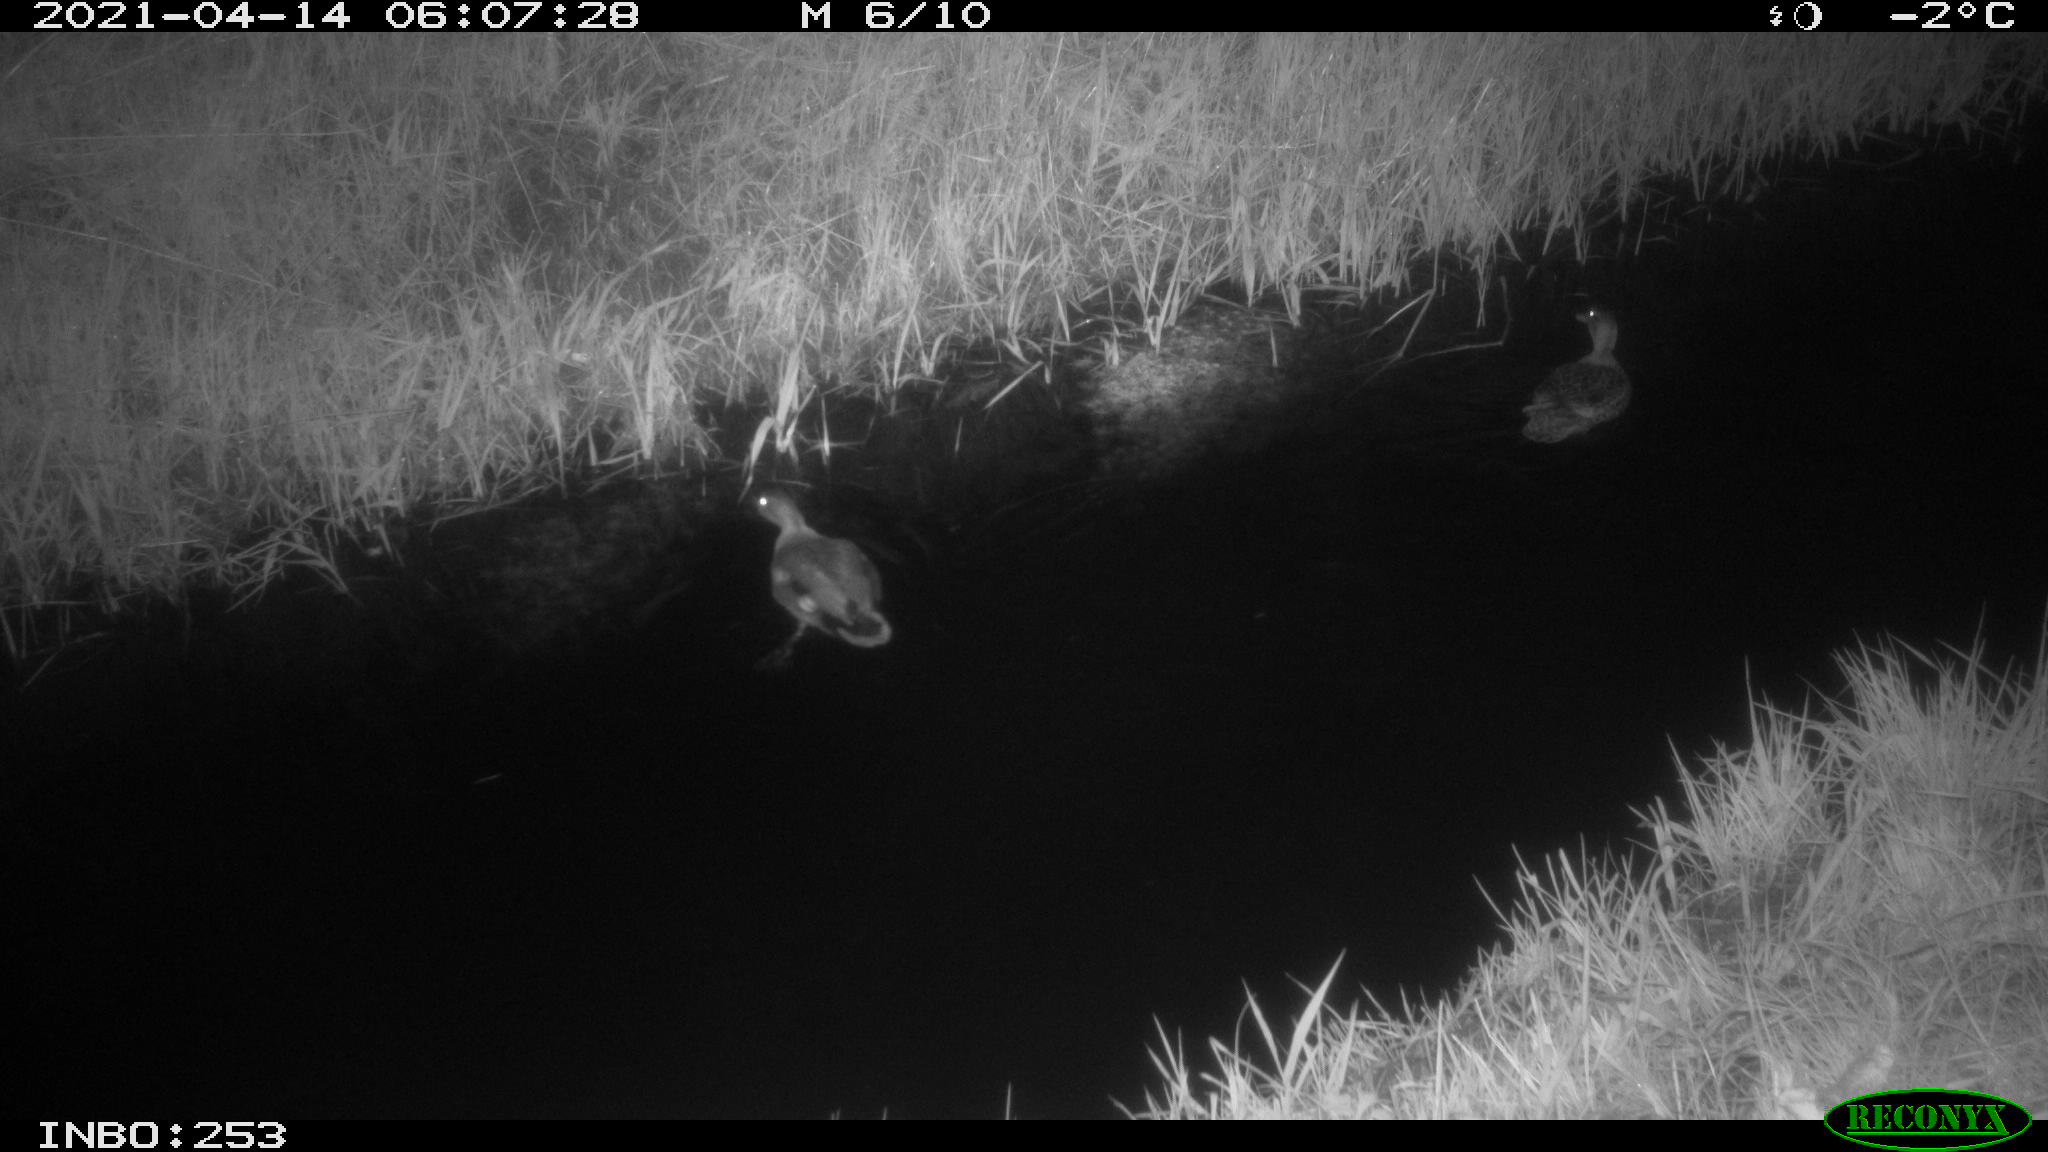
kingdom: Animalia
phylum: Chordata
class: Aves
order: Anseriformes
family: Anatidae
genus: Mareca
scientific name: Mareca strepera
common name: Gadwall
